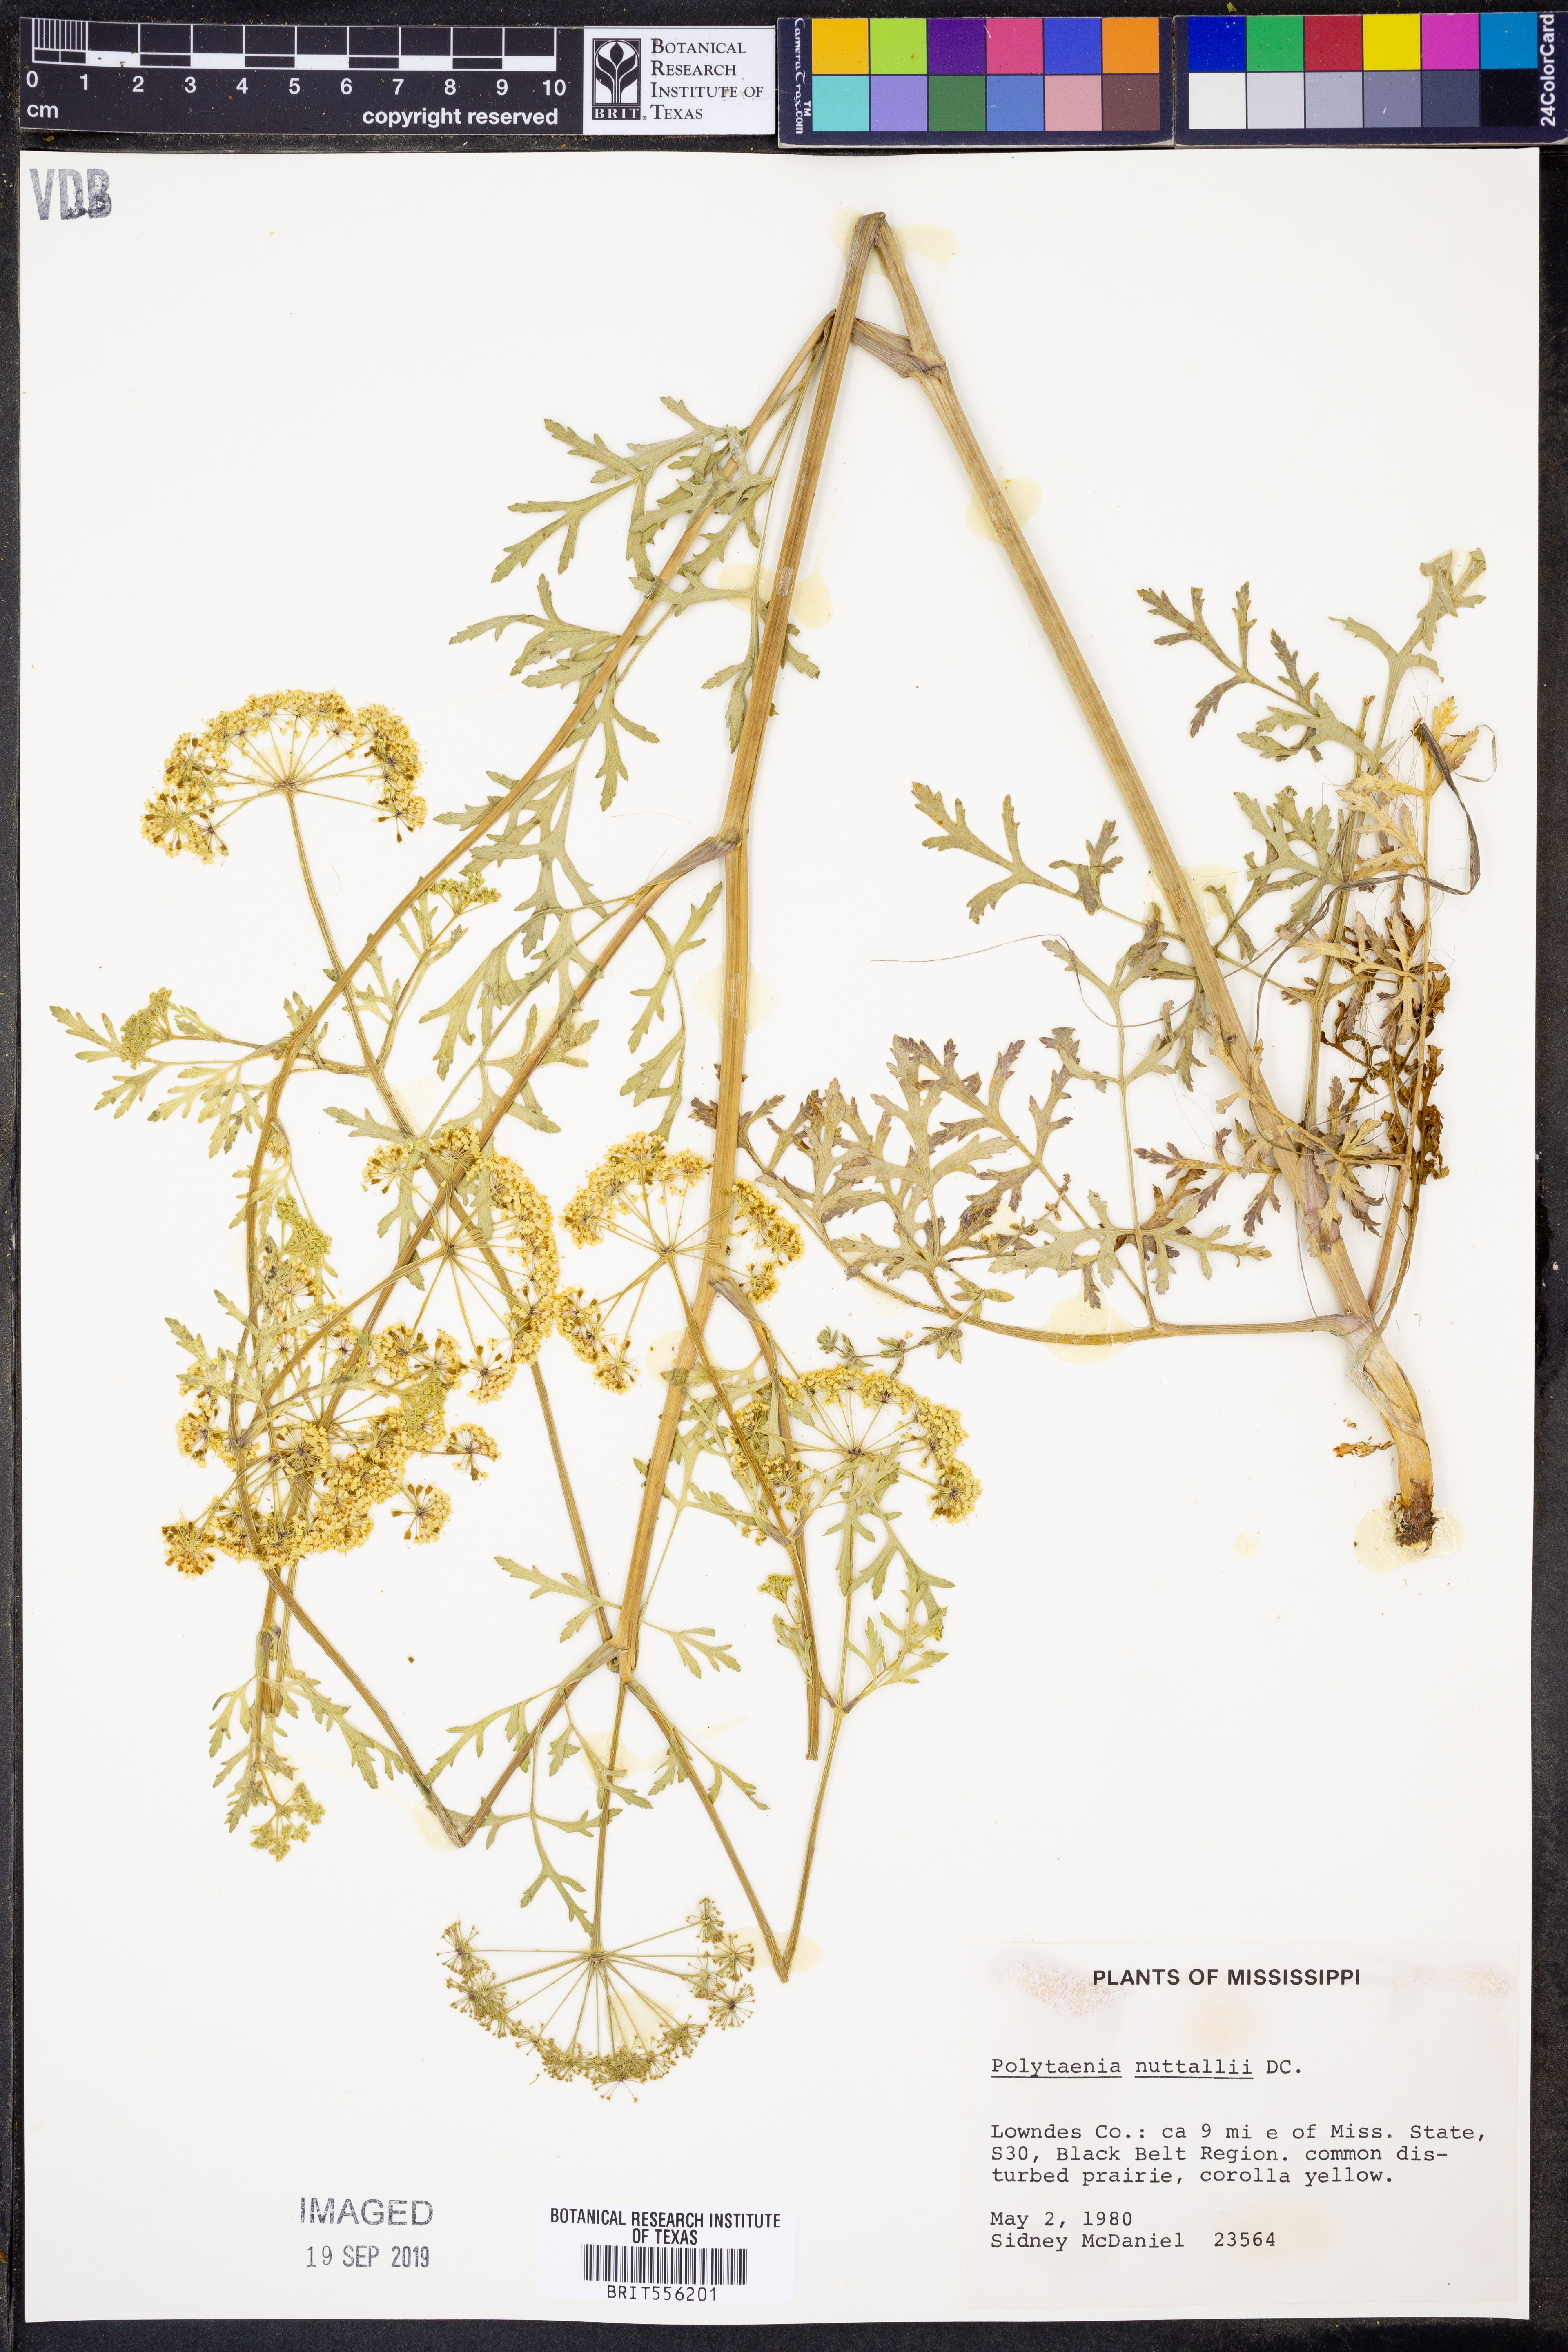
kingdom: Plantae
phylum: Tracheophyta
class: Magnoliopsida
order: Apiales
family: Apiaceae
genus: Polytaenia
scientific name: Polytaenia nuttallii
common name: Prairie-parsley
